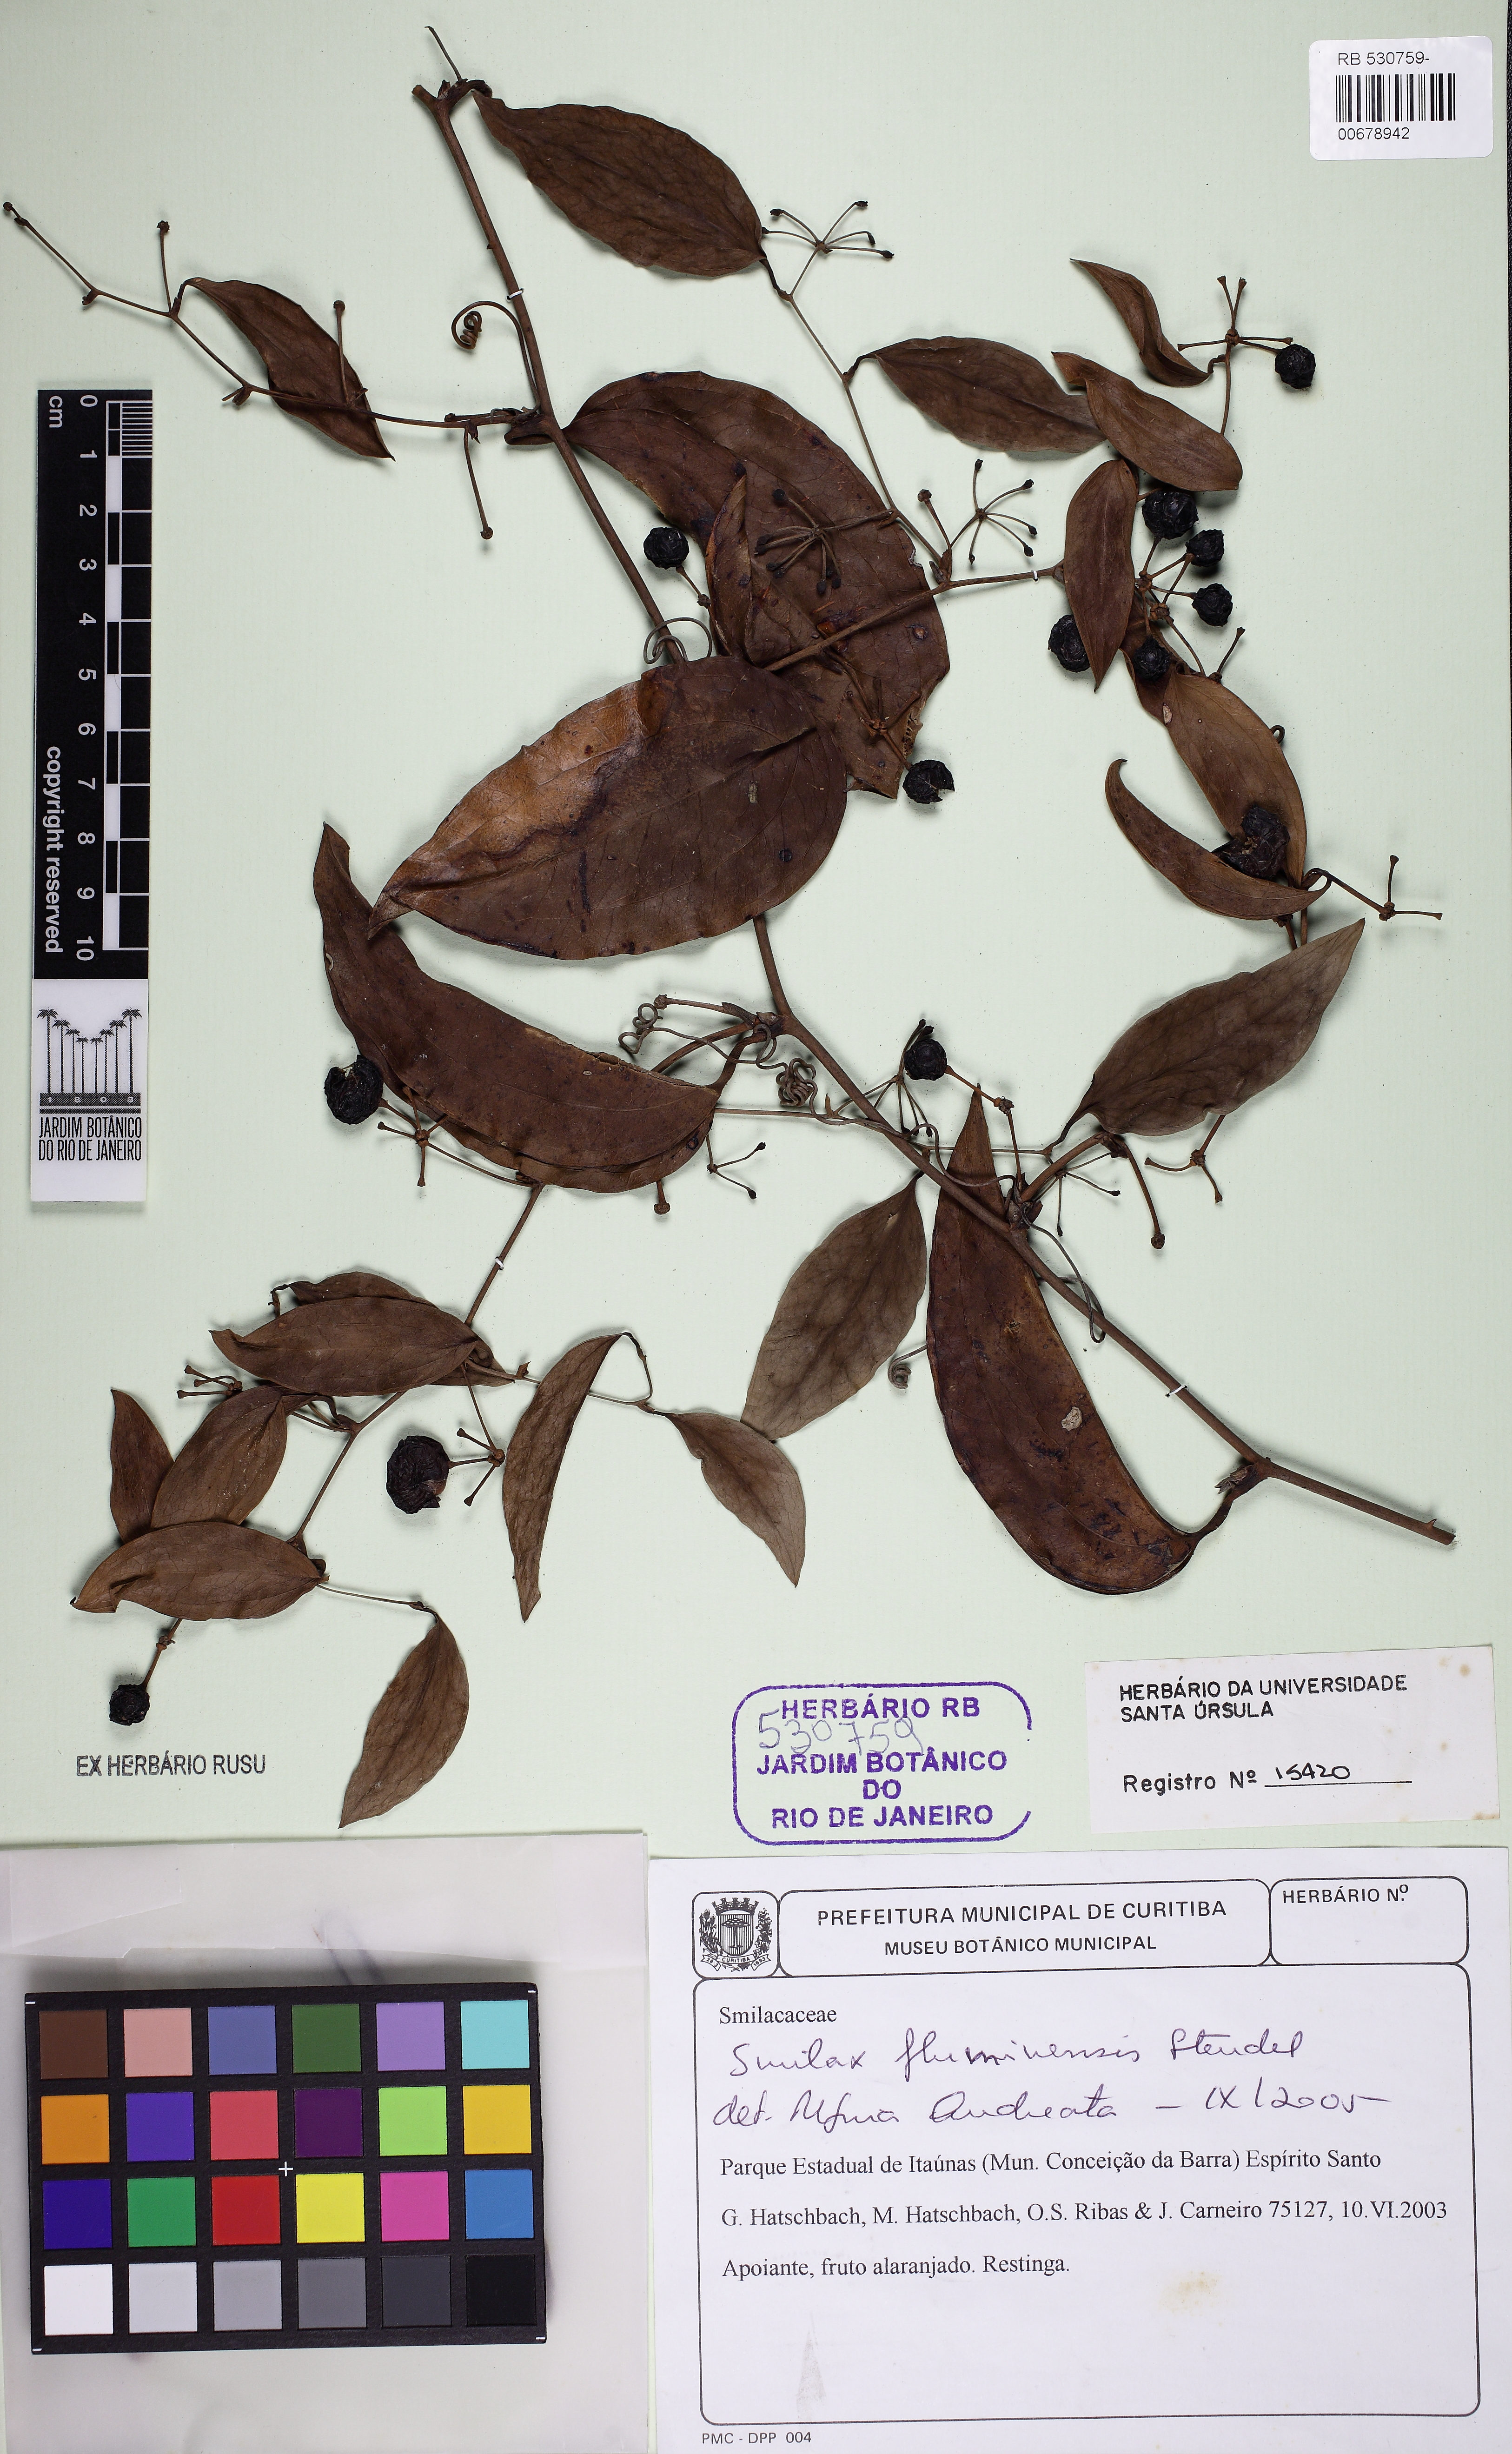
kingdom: Plantae
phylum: Tracheophyta
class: Liliopsida
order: Liliales
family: Smilacaceae
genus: Smilax
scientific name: Smilax fluminensis
